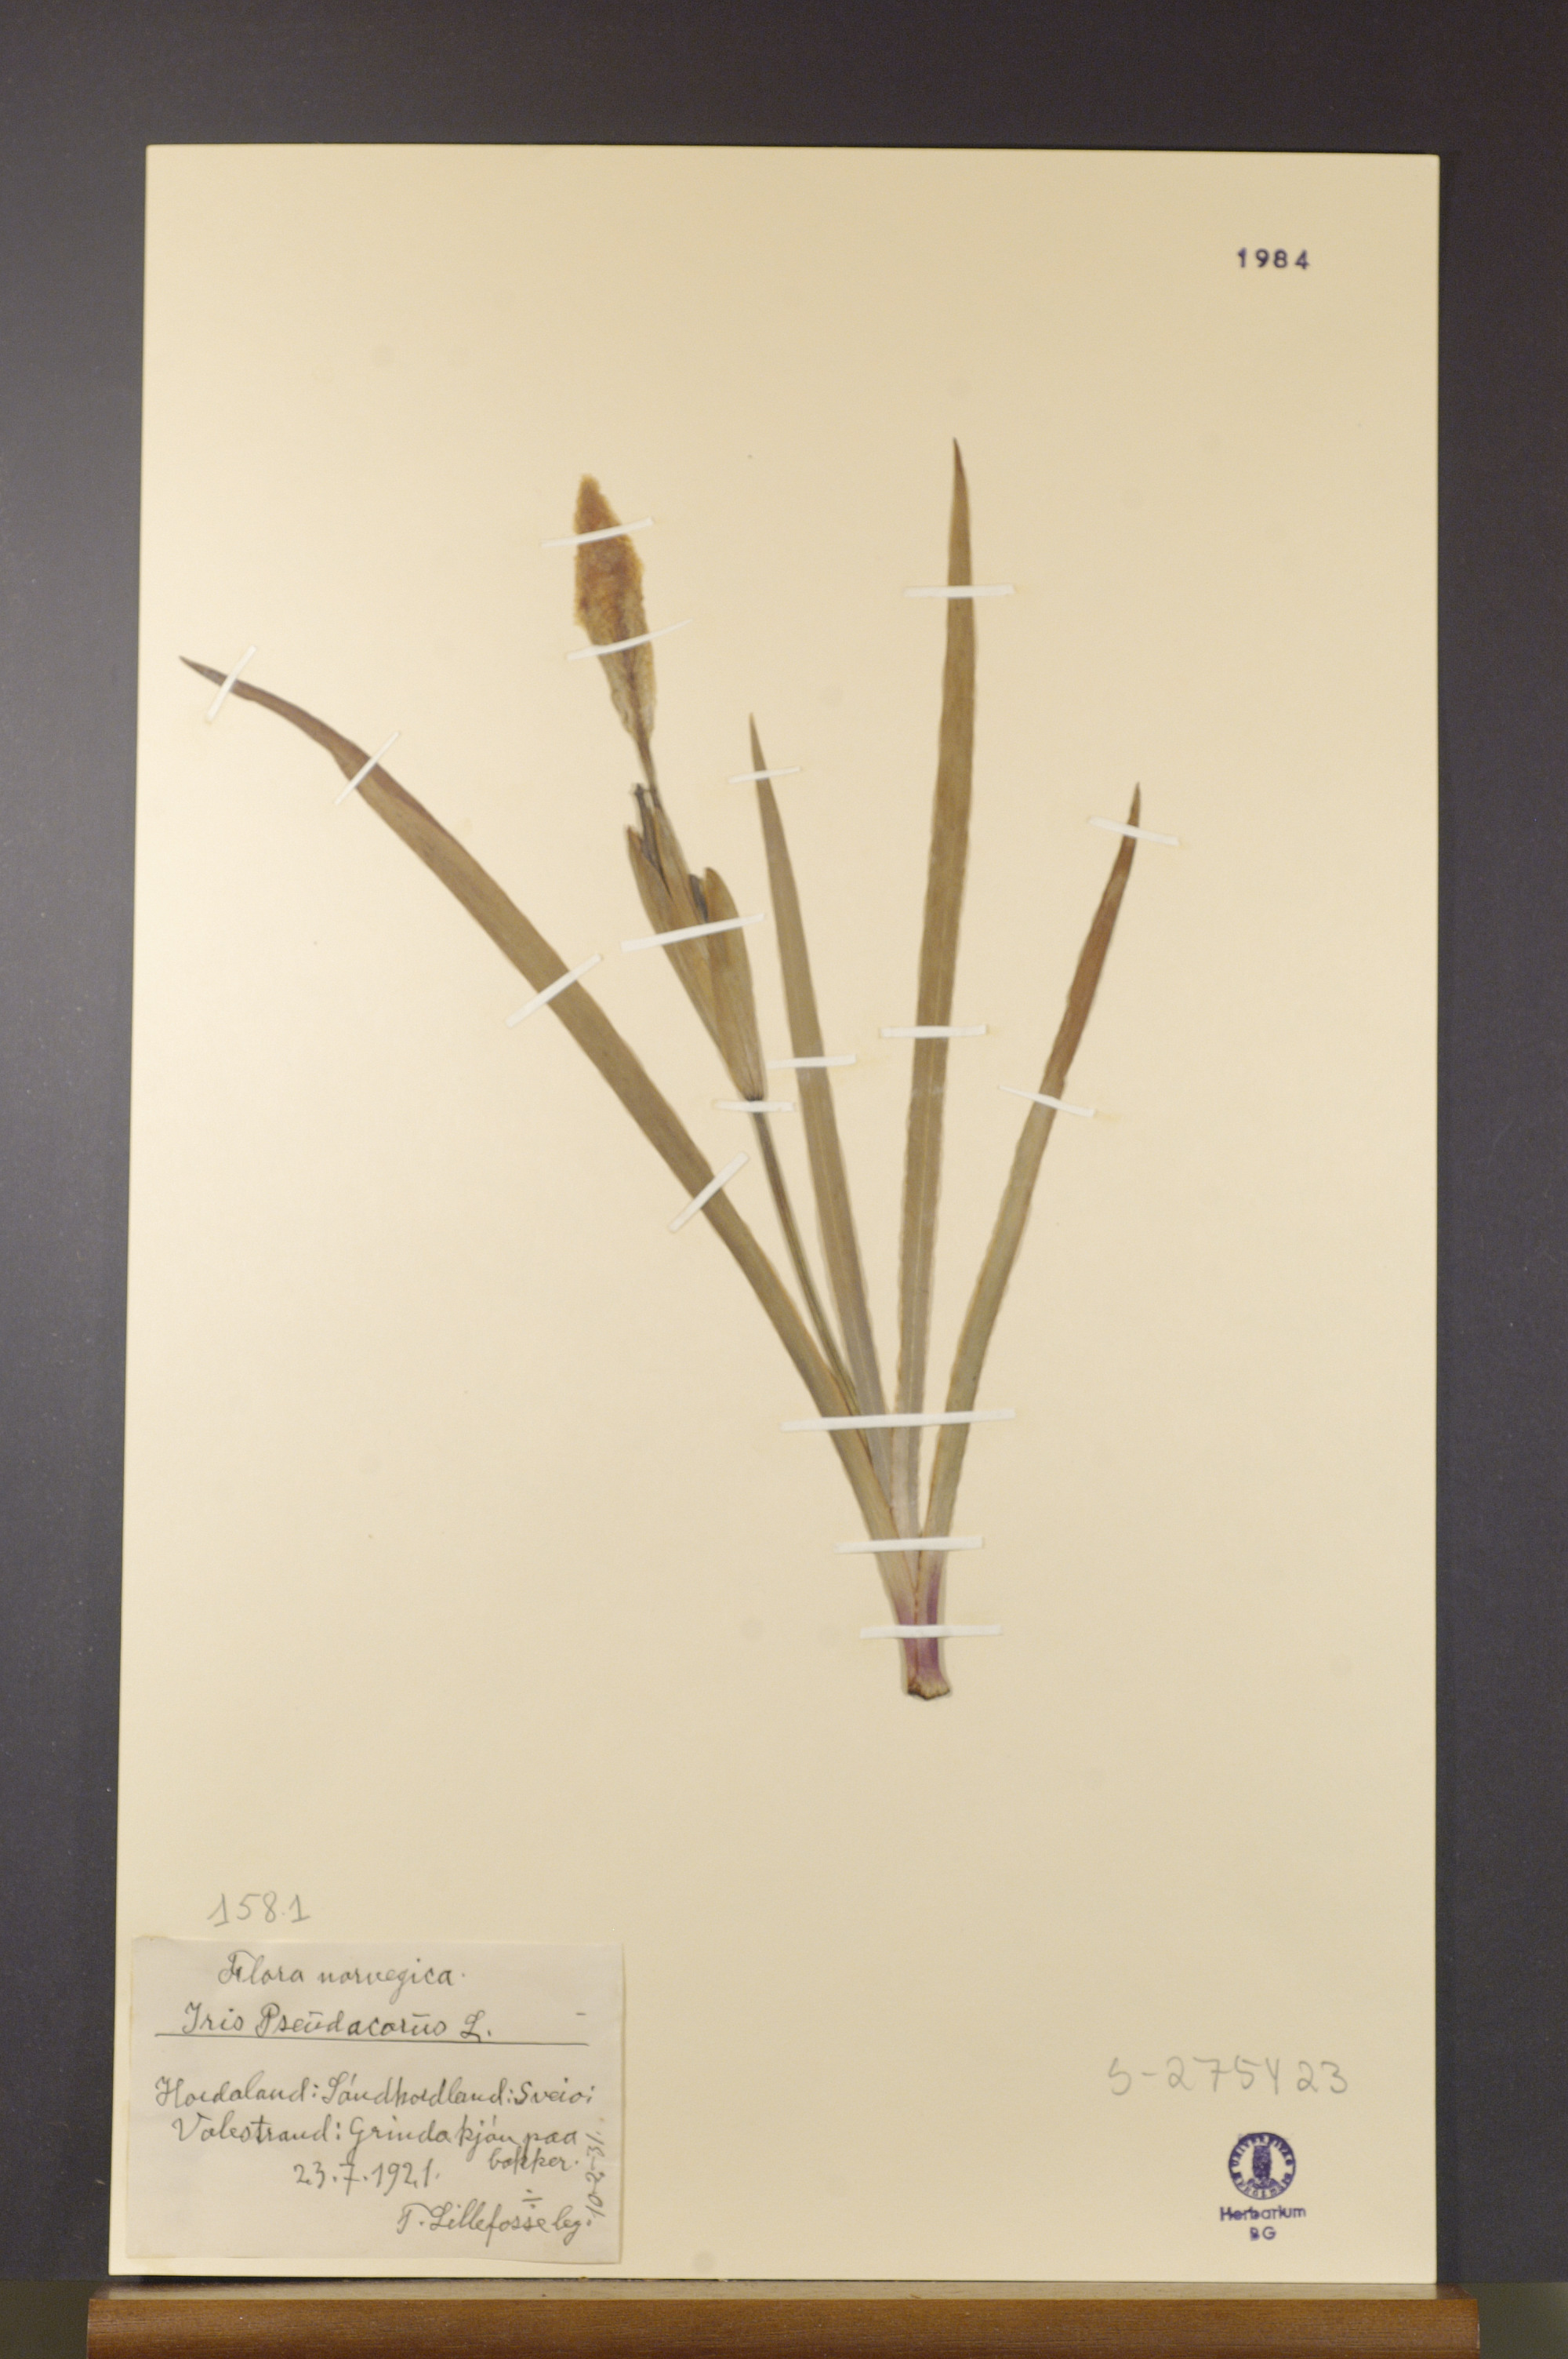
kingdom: Plantae
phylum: Tracheophyta
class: Liliopsida
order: Asparagales
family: Iridaceae
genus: Iris
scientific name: Iris pseudacorus
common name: Yellow flag
